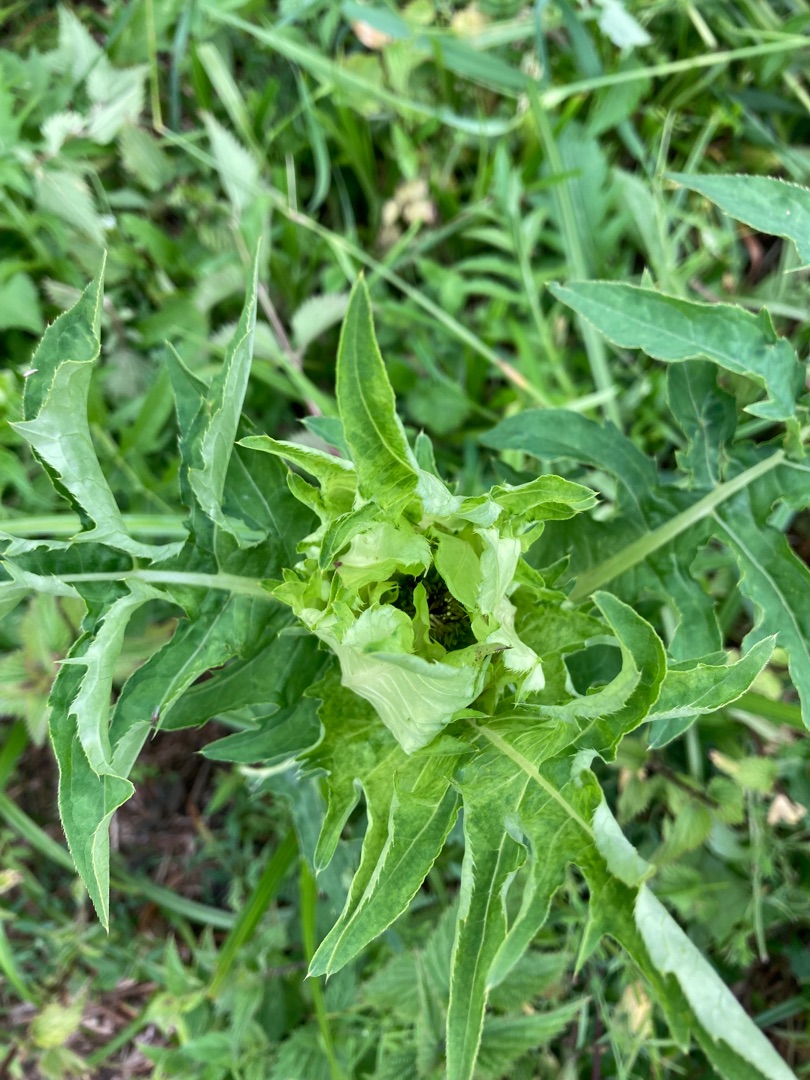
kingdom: Plantae
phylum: Tracheophyta
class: Magnoliopsida
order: Asterales
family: Asteraceae
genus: Cirsium
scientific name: Cirsium oleraceum
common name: Kål-tidsel
